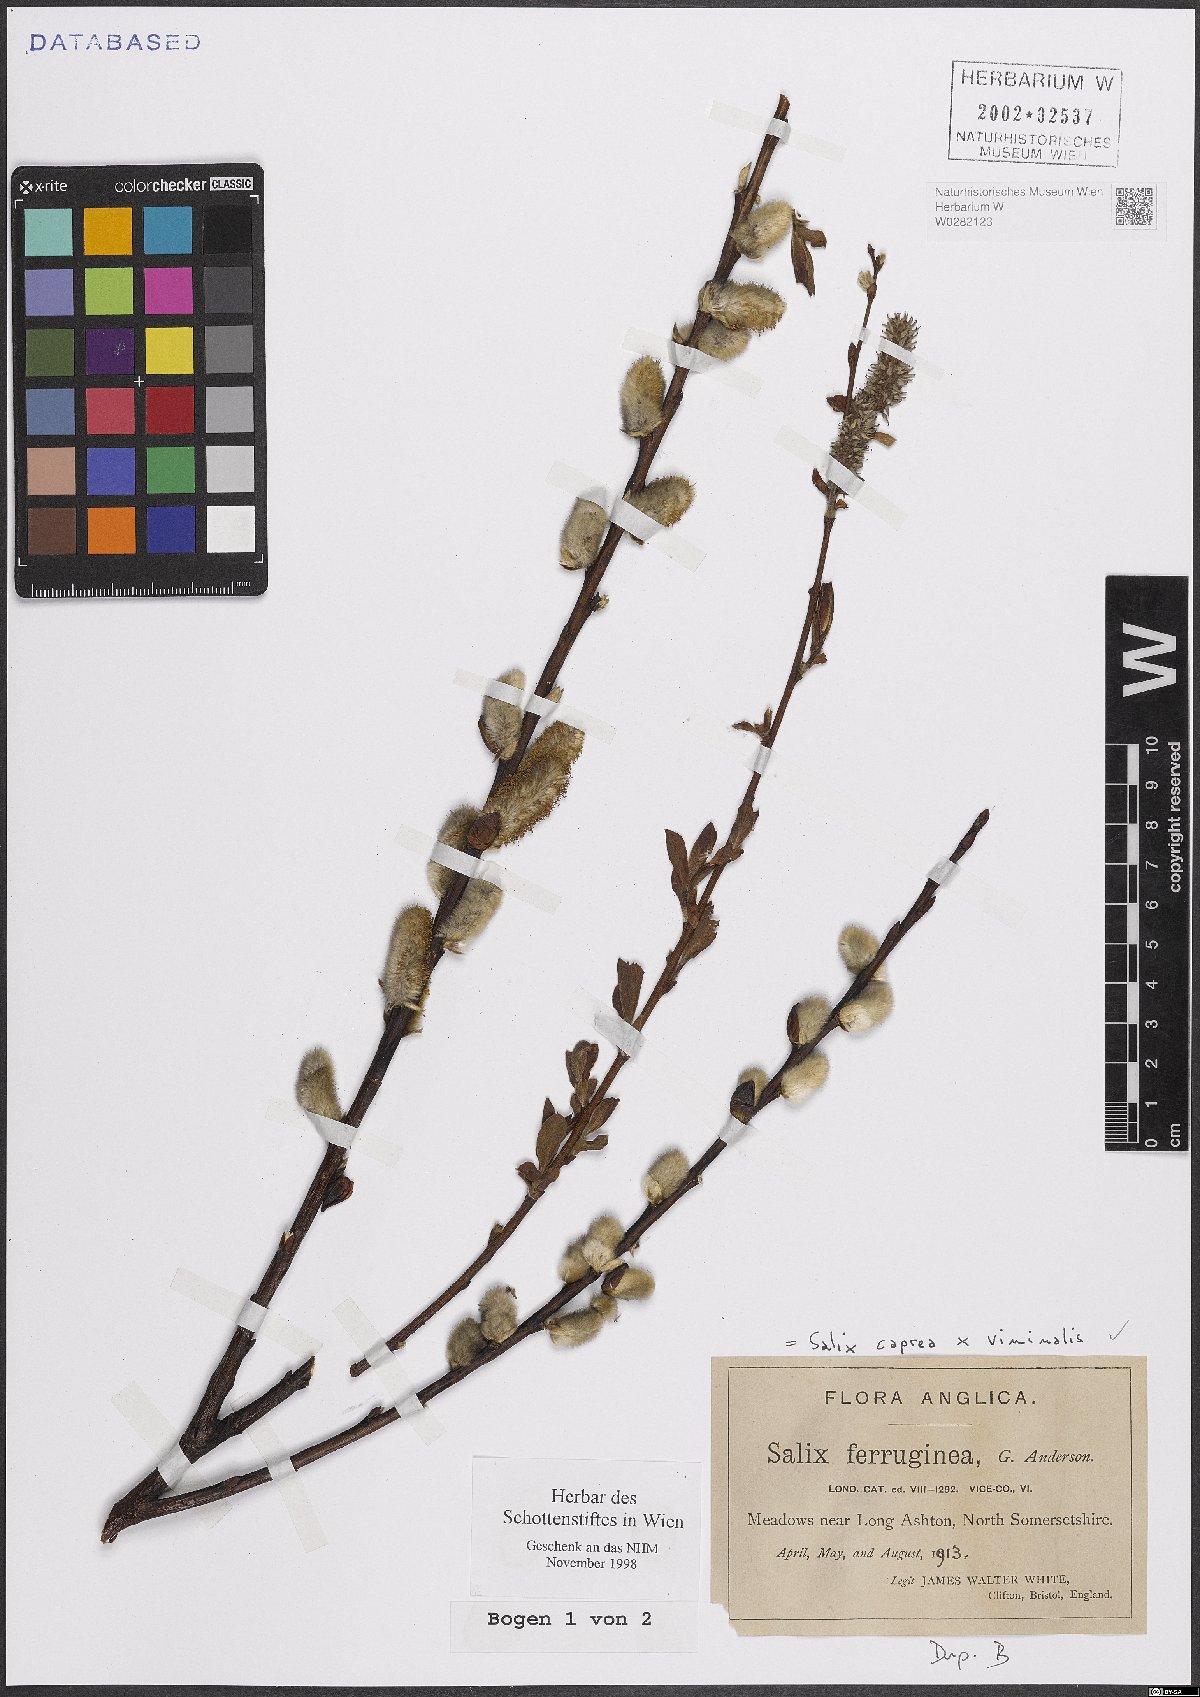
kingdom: Plantae
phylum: Tracheophyta
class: Magnoliopsida
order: Malpighiales
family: Salicaceae
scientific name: Salicaceae
